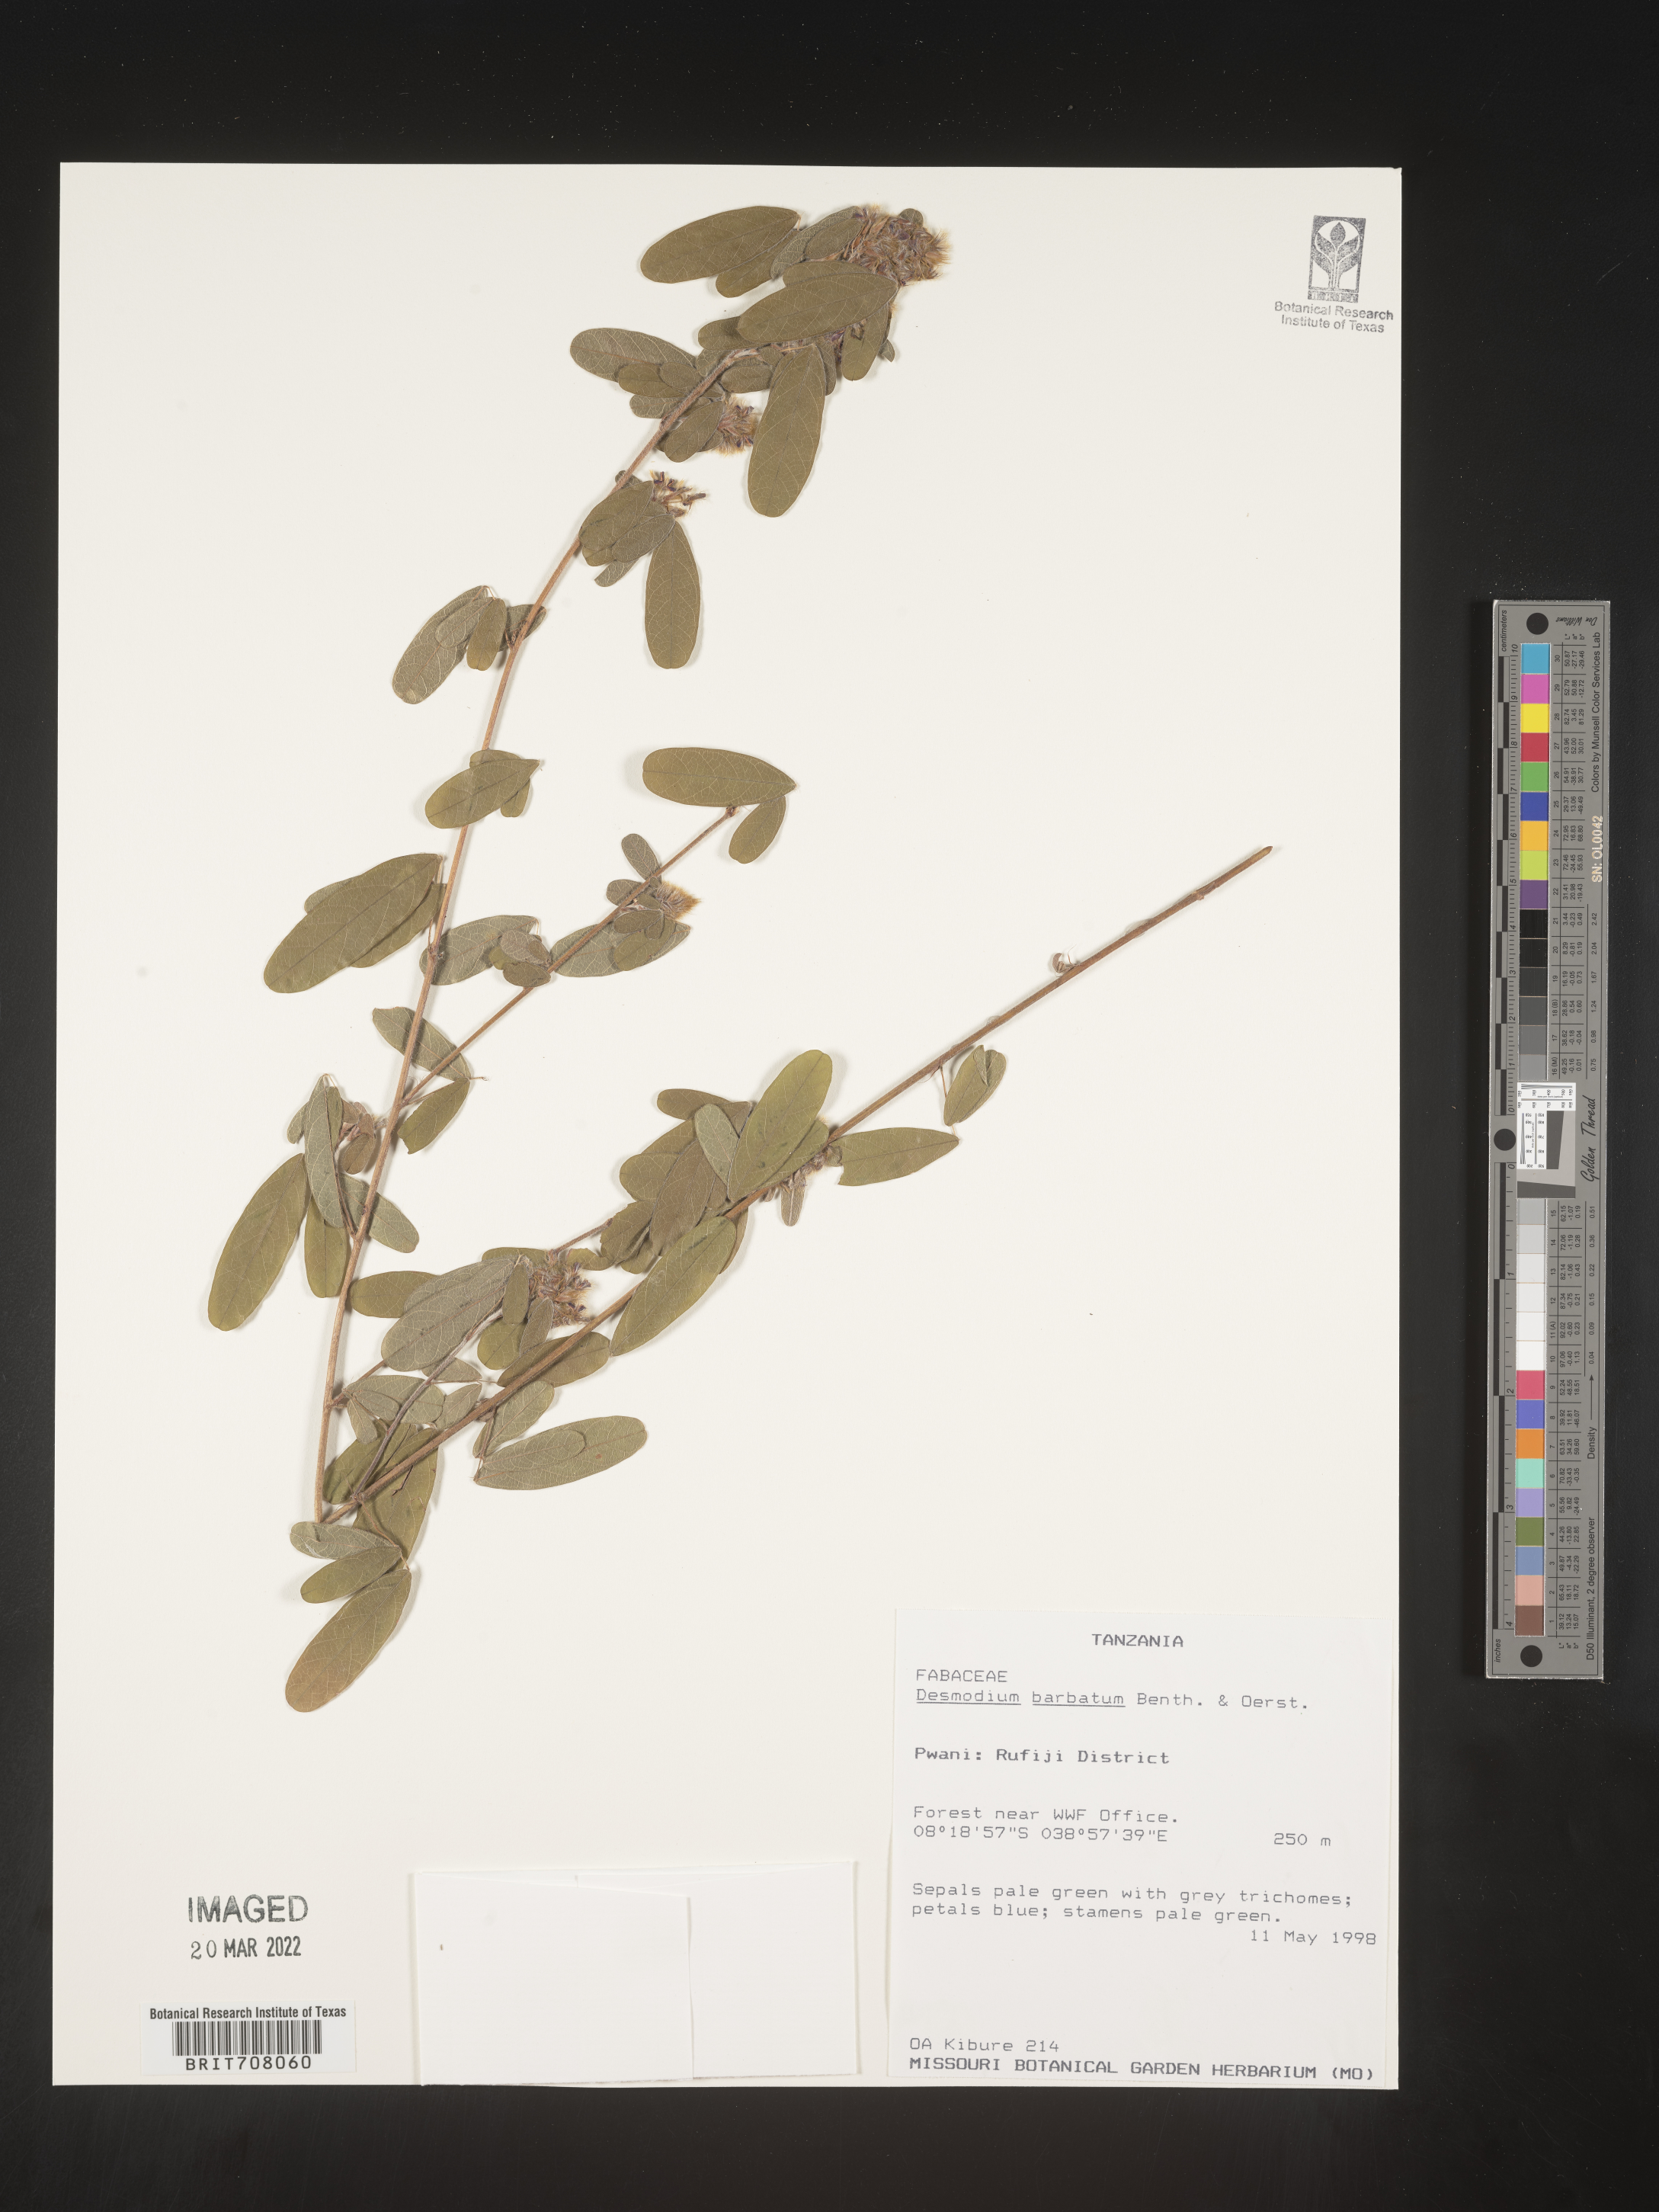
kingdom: Plantae
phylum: Tracheophyta
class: Magnoliopsida
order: Fabales
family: Fabaceae
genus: Desmodium
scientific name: Desmodium
